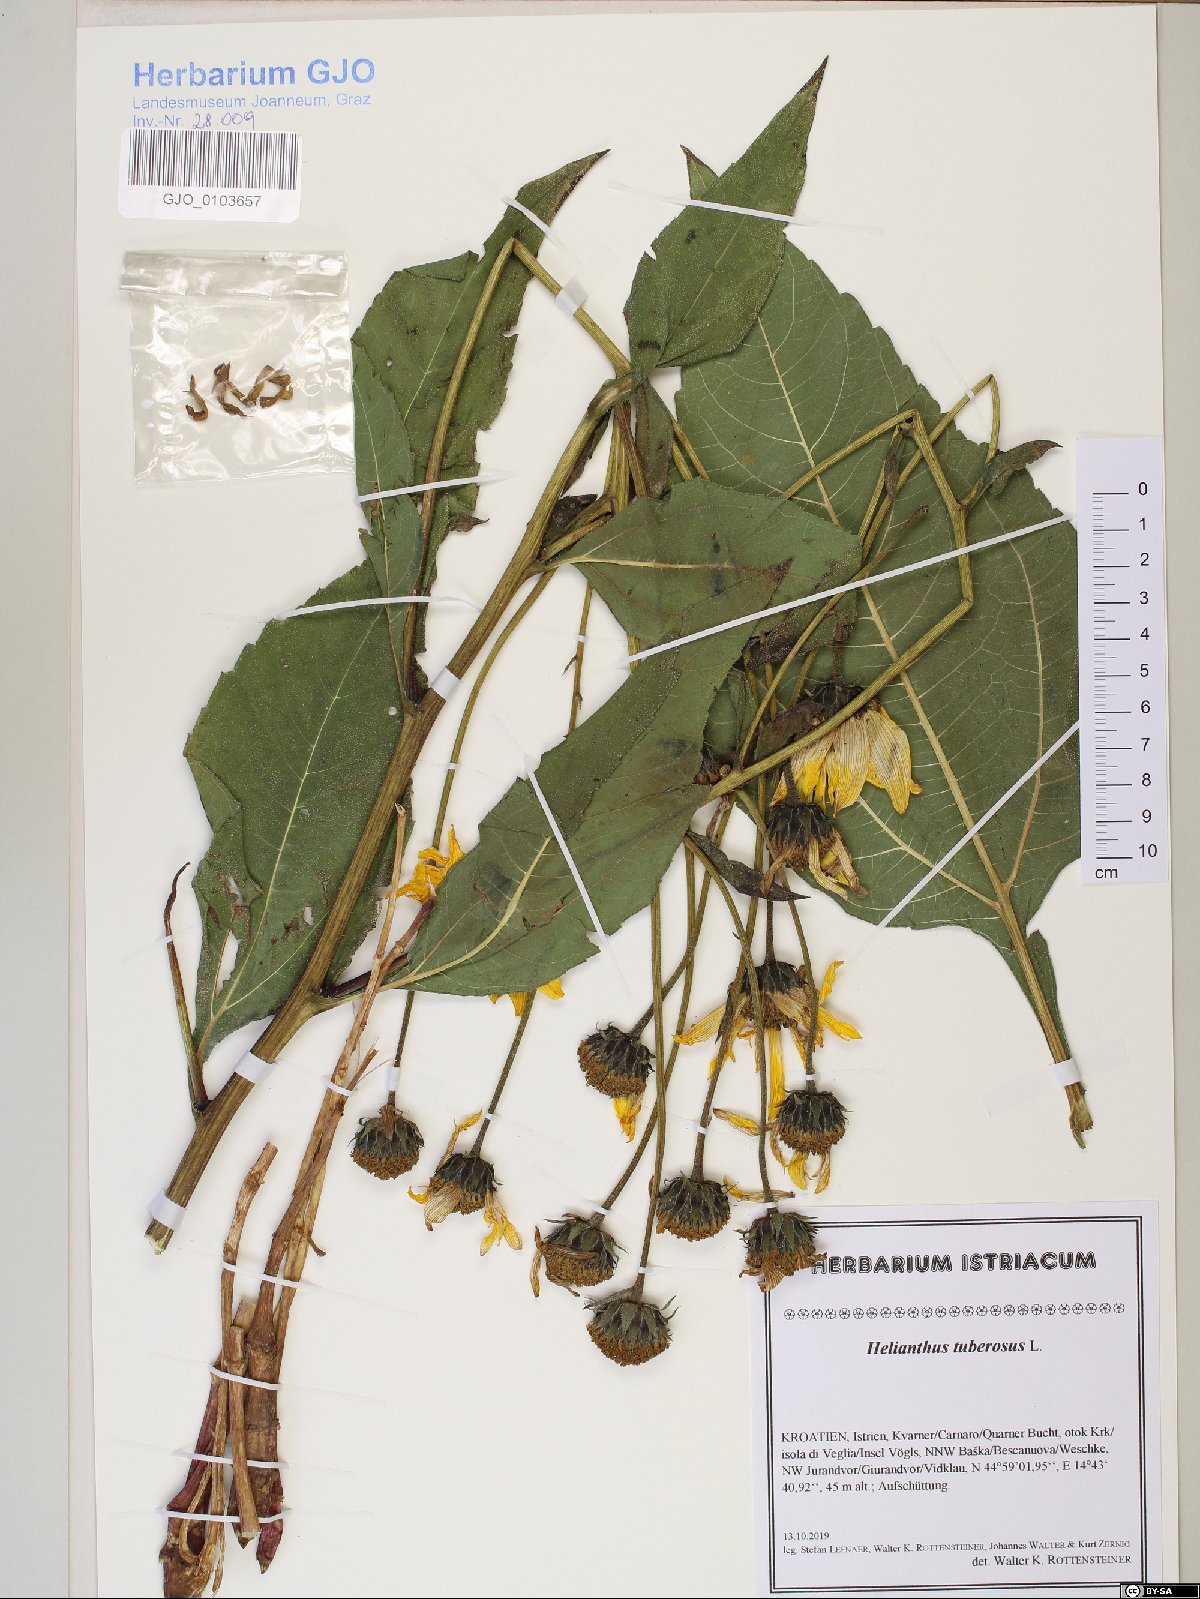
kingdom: Plantae
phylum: Tracheophyta
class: Magnoliopsida
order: Asterales
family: Asteraceae
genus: Helianthus
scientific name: Helianthus tuberosus
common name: Jerusalem artichoke
